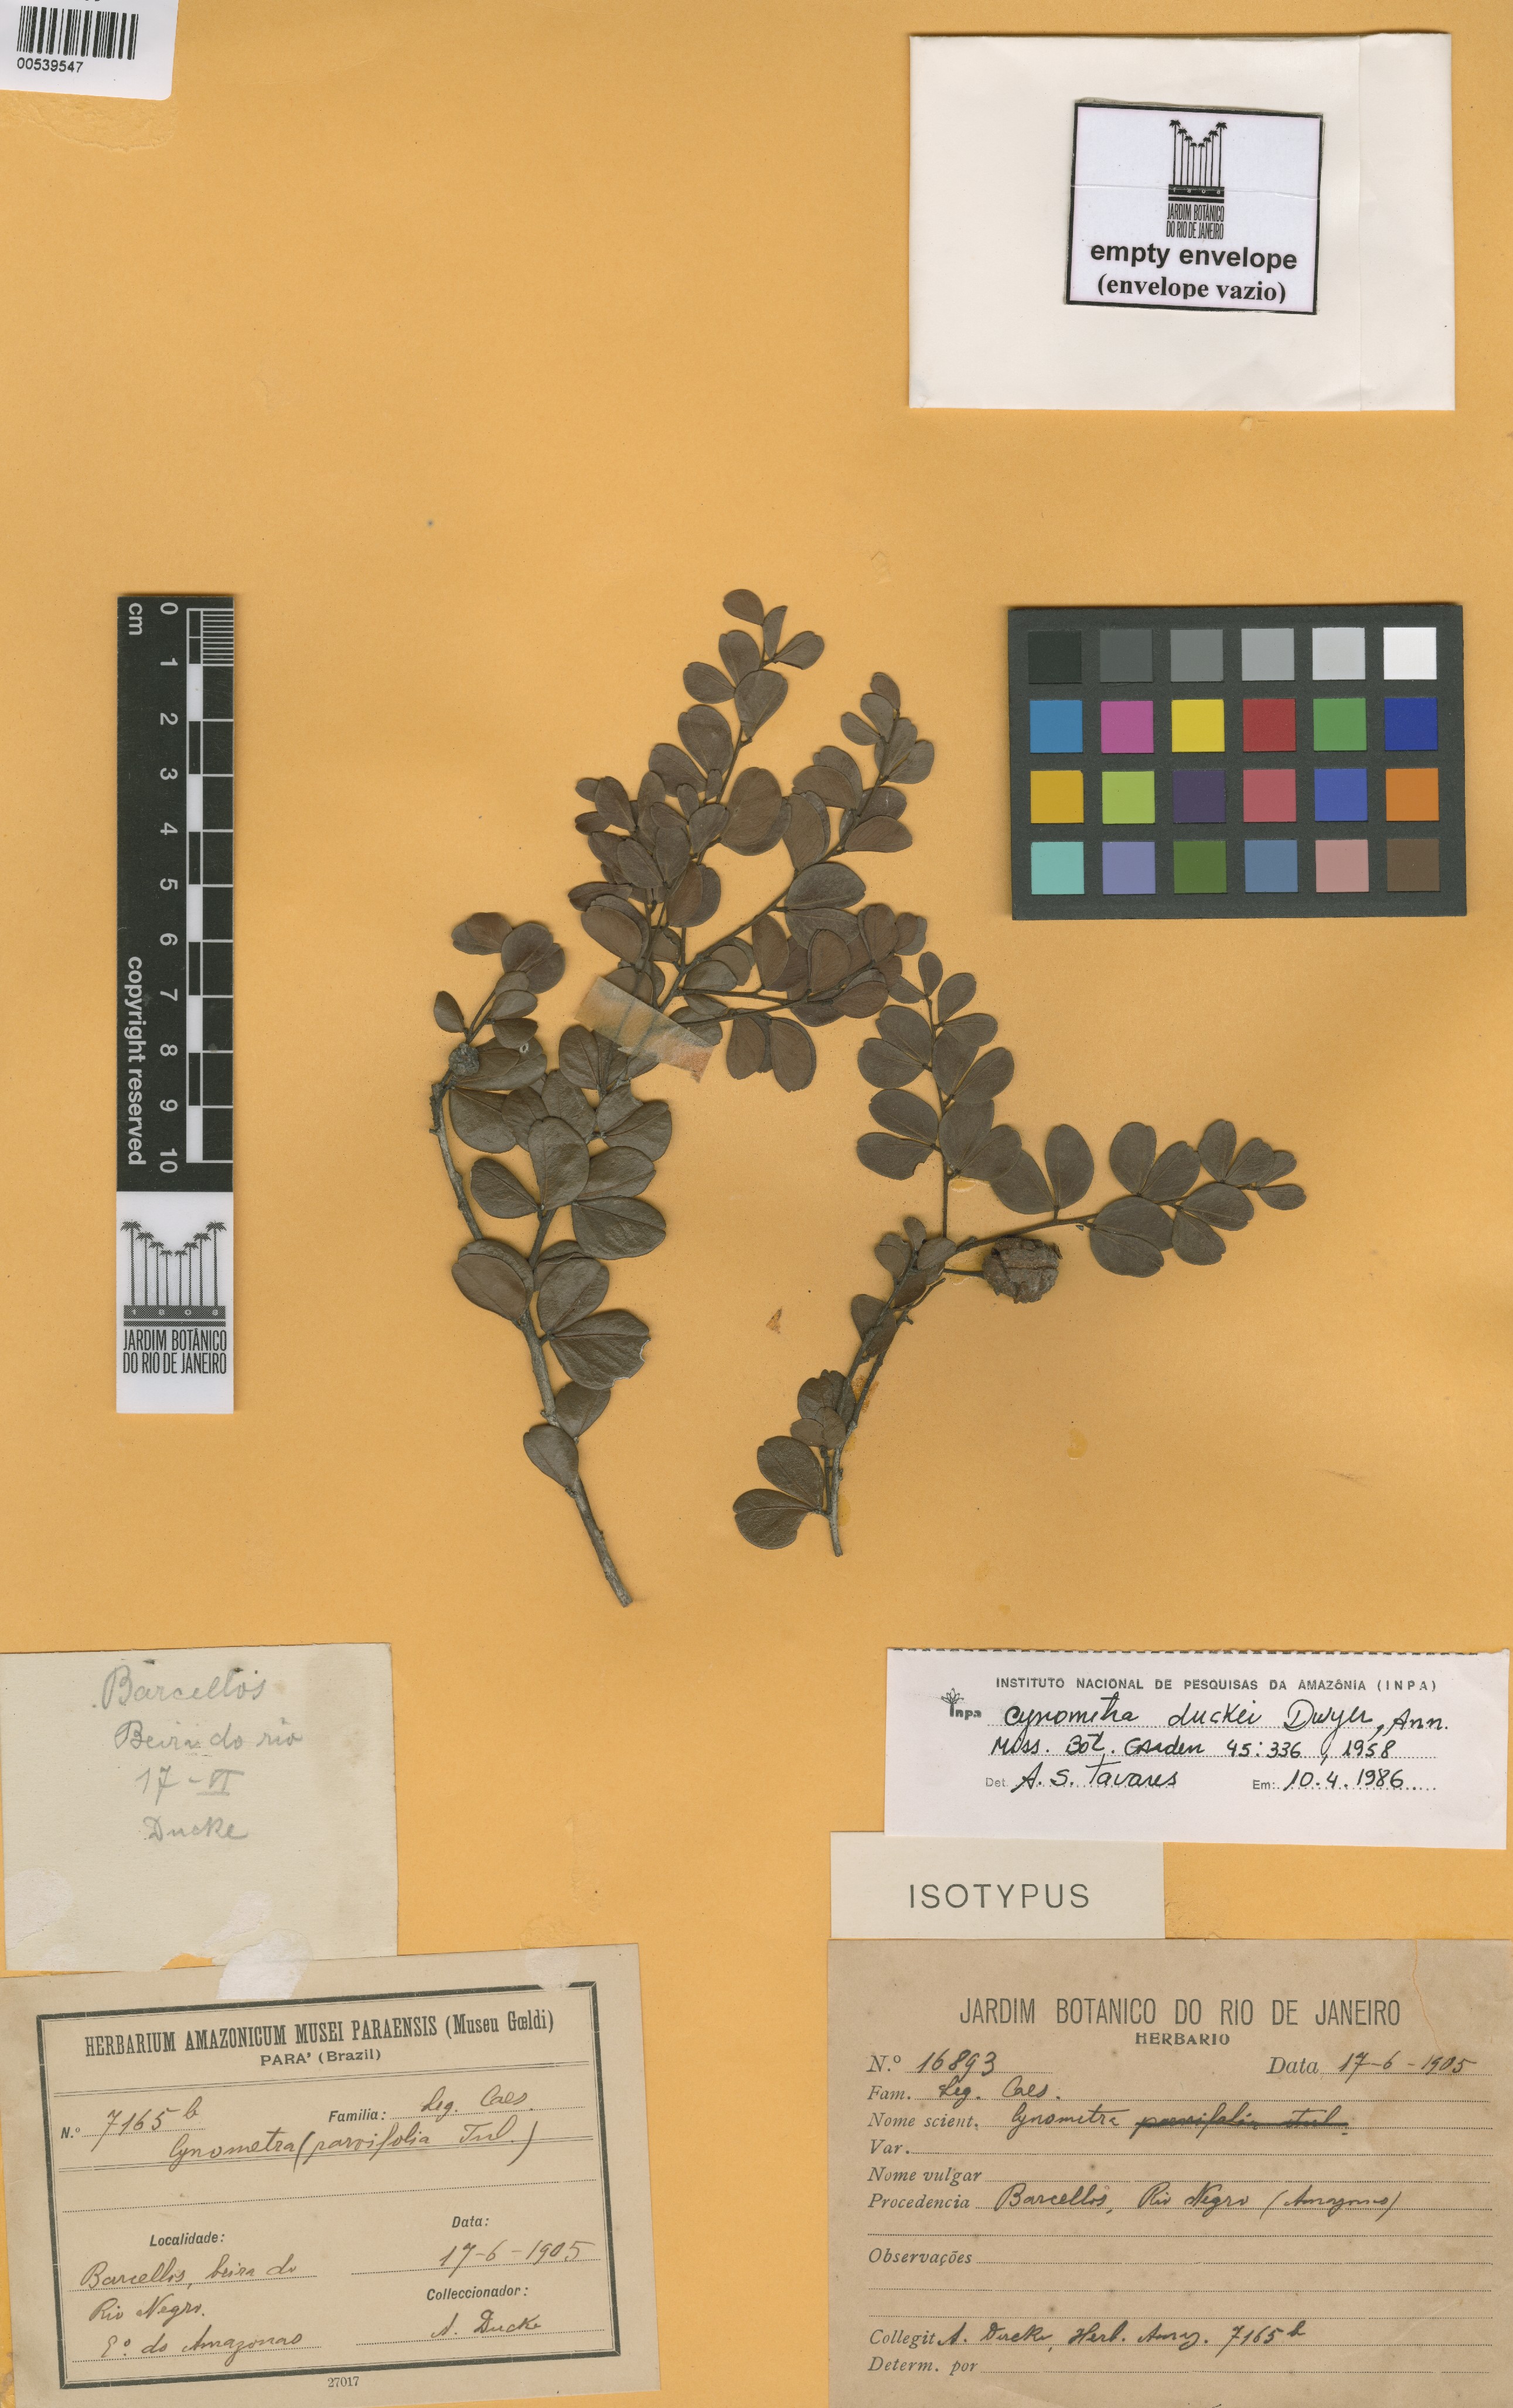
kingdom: Plantae
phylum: Tracheophyta
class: Magnoliopsida
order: Fabales
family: Fabaceae
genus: Cynometra
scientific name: Cynometra duckei
